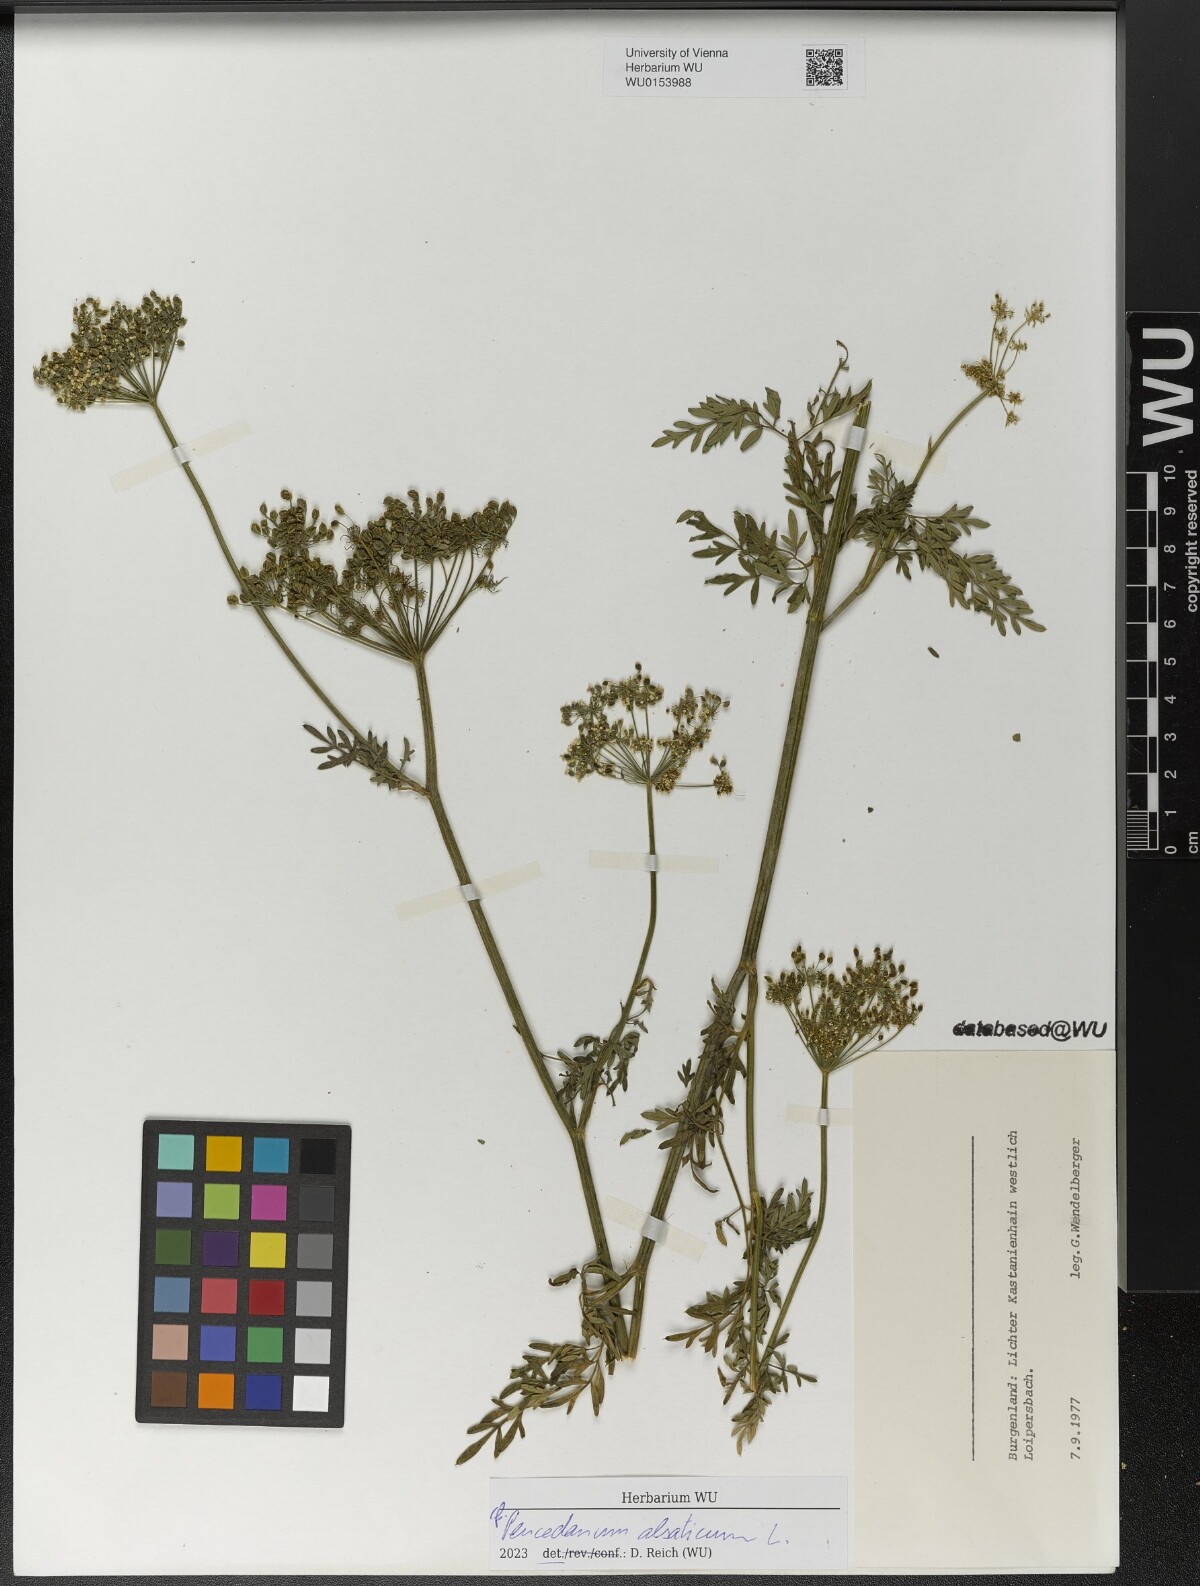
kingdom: Plantae
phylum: Tracheophyta
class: Magnoliopsida
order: Apiales
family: Apiaceae
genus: Xanthoselinum
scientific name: Xanthoselinum alsaticum
